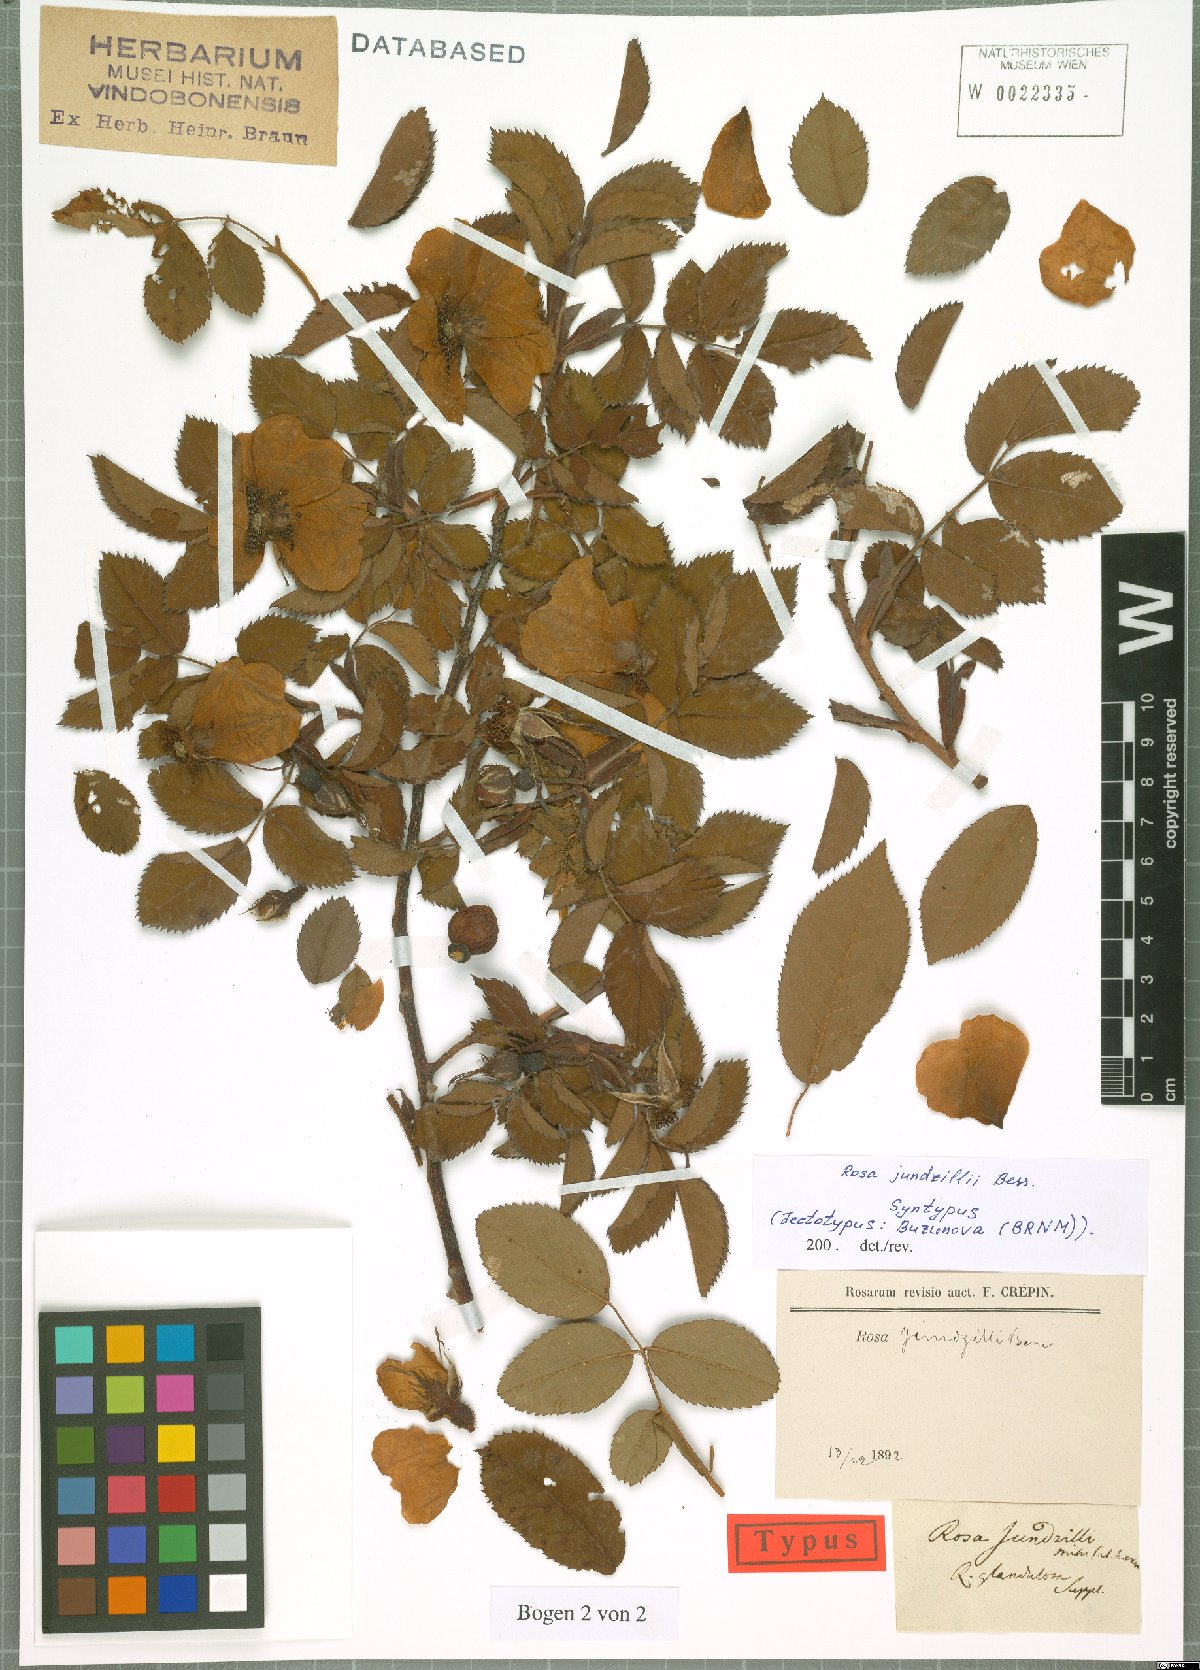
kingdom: Plantae
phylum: Tracheophyta
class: Magnoliopsida
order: Rosales
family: Rosaceae
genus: Rosa
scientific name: Rosa marginata
